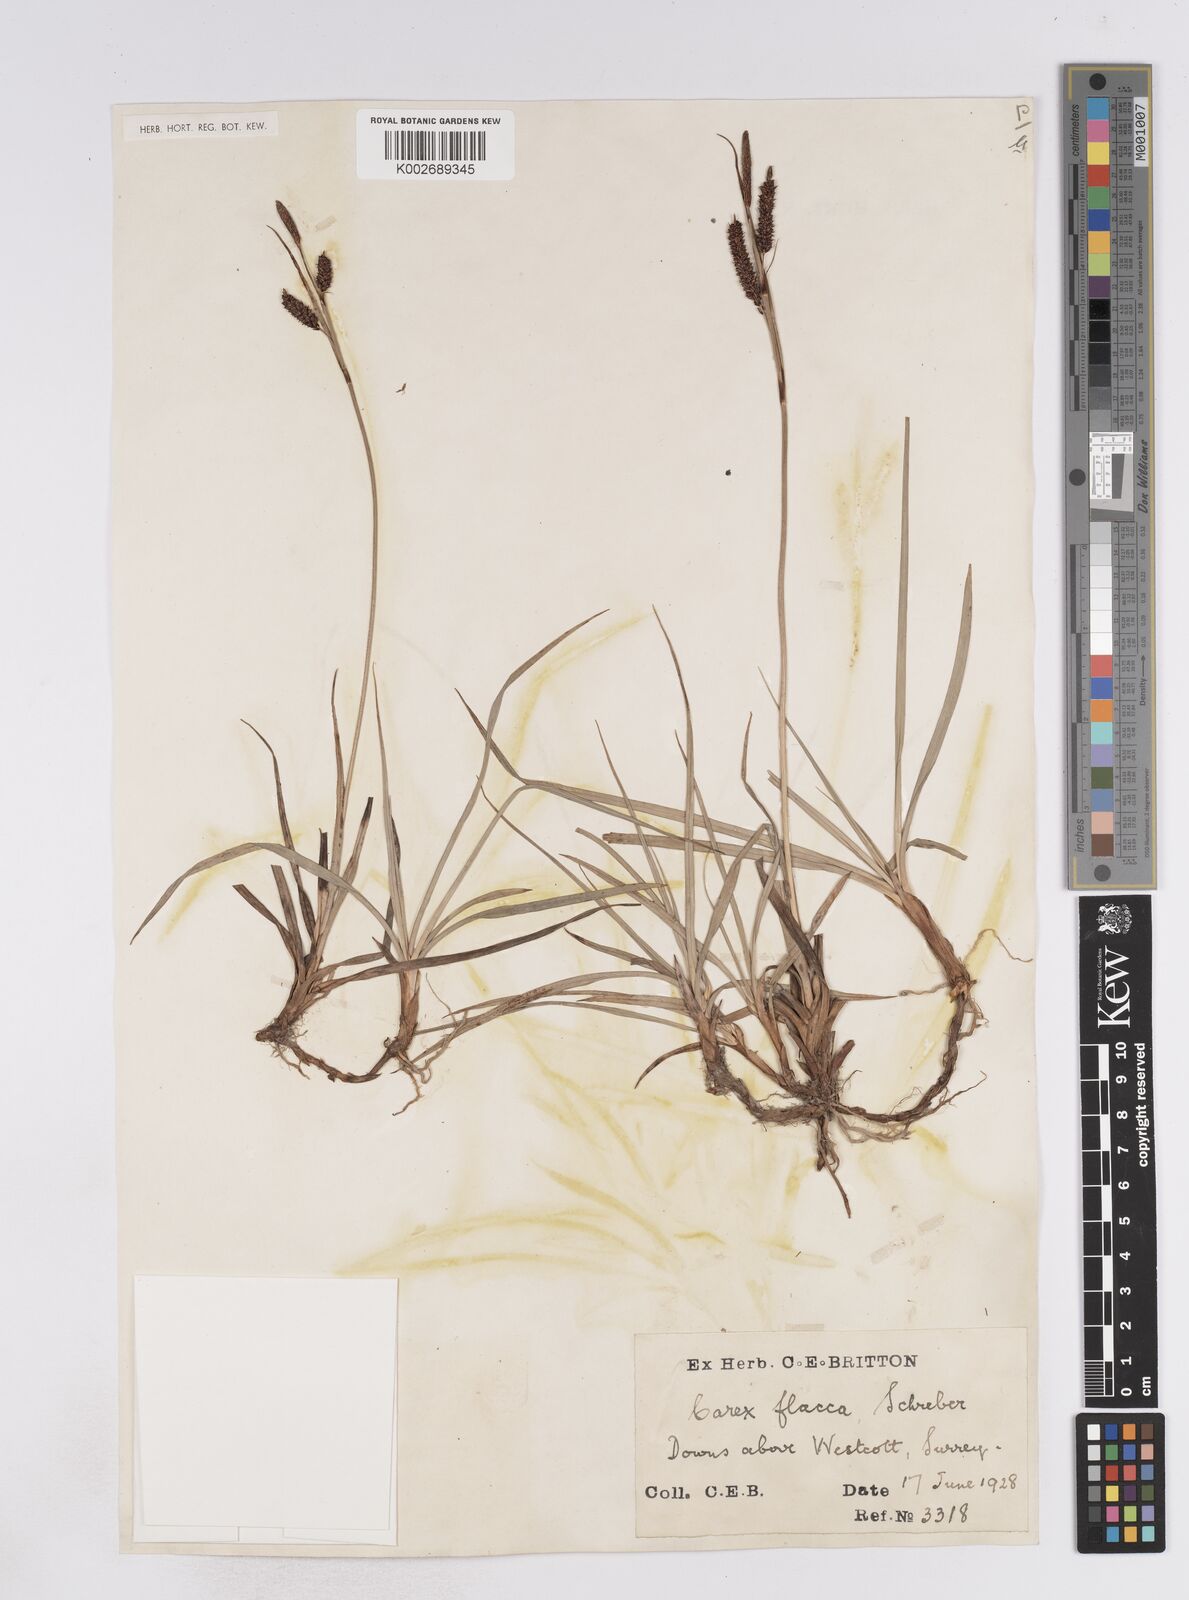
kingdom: Plantae
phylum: Tracheophyta
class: Liliopsida
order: Poales
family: Cyperaceae
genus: Carex
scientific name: Carex flacca
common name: Glaucous sedge
